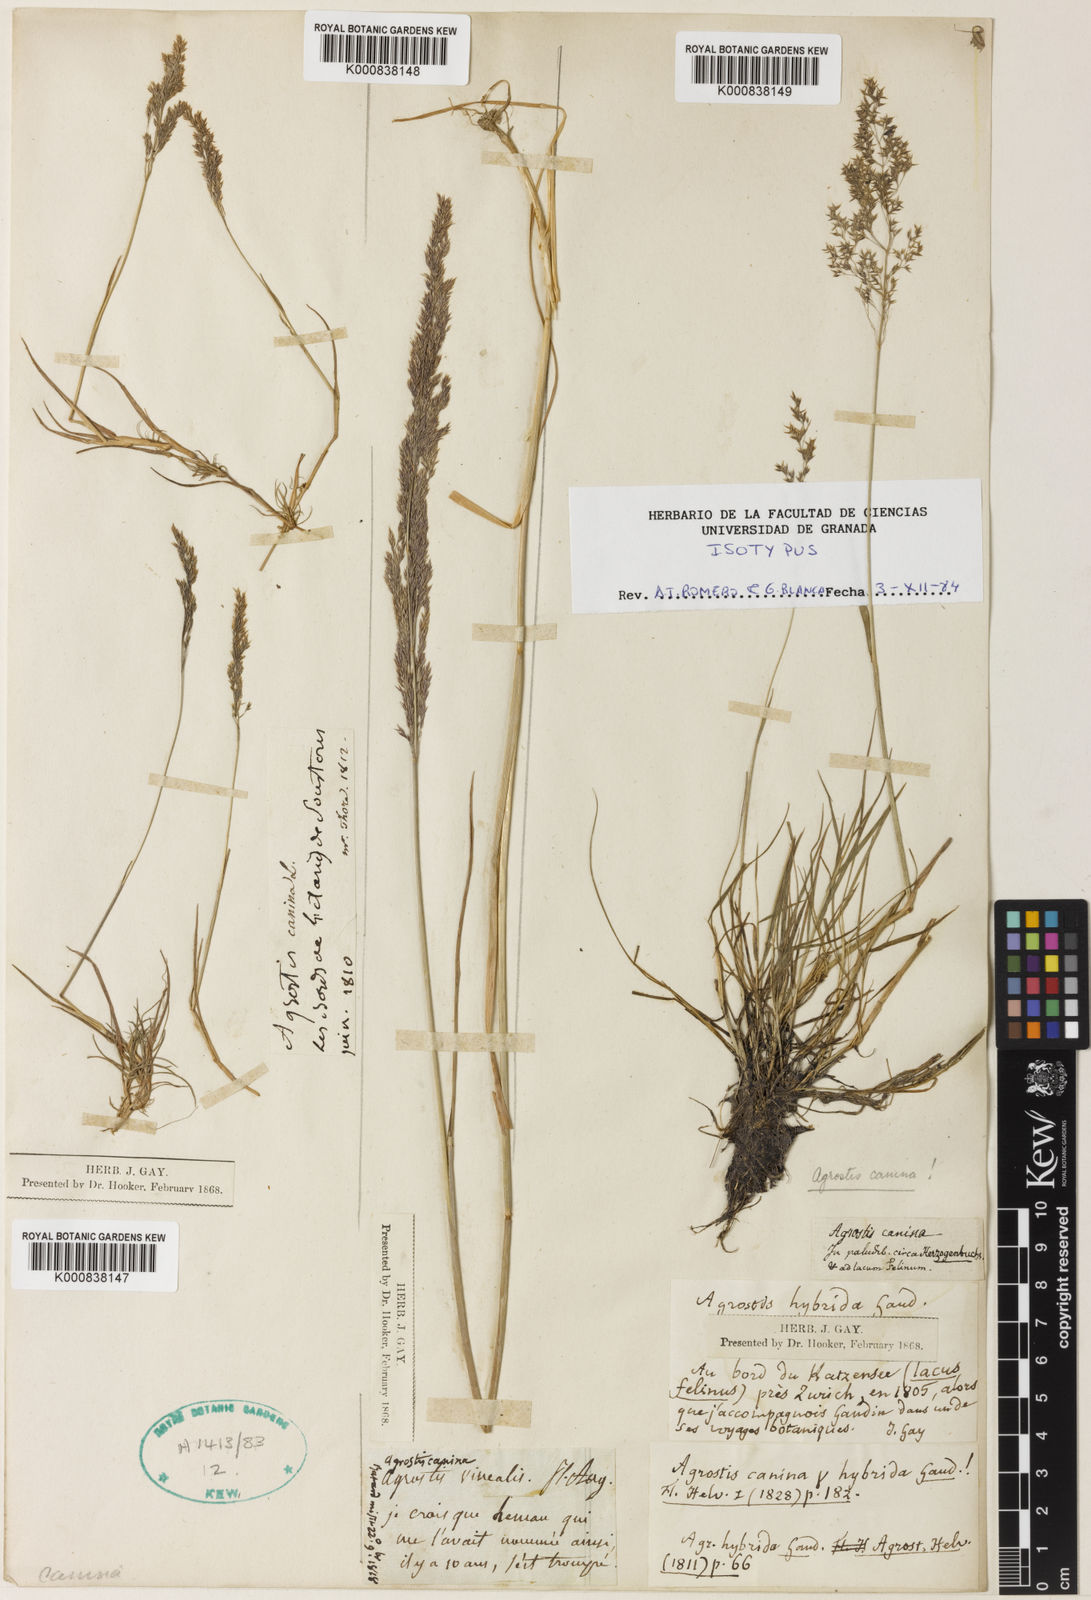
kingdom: Plantae
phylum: Tracheophyta
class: Liliopsida
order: Poales
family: Poaceae
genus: Agrostis
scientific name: Agrostis vinealis
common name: Brown bent
